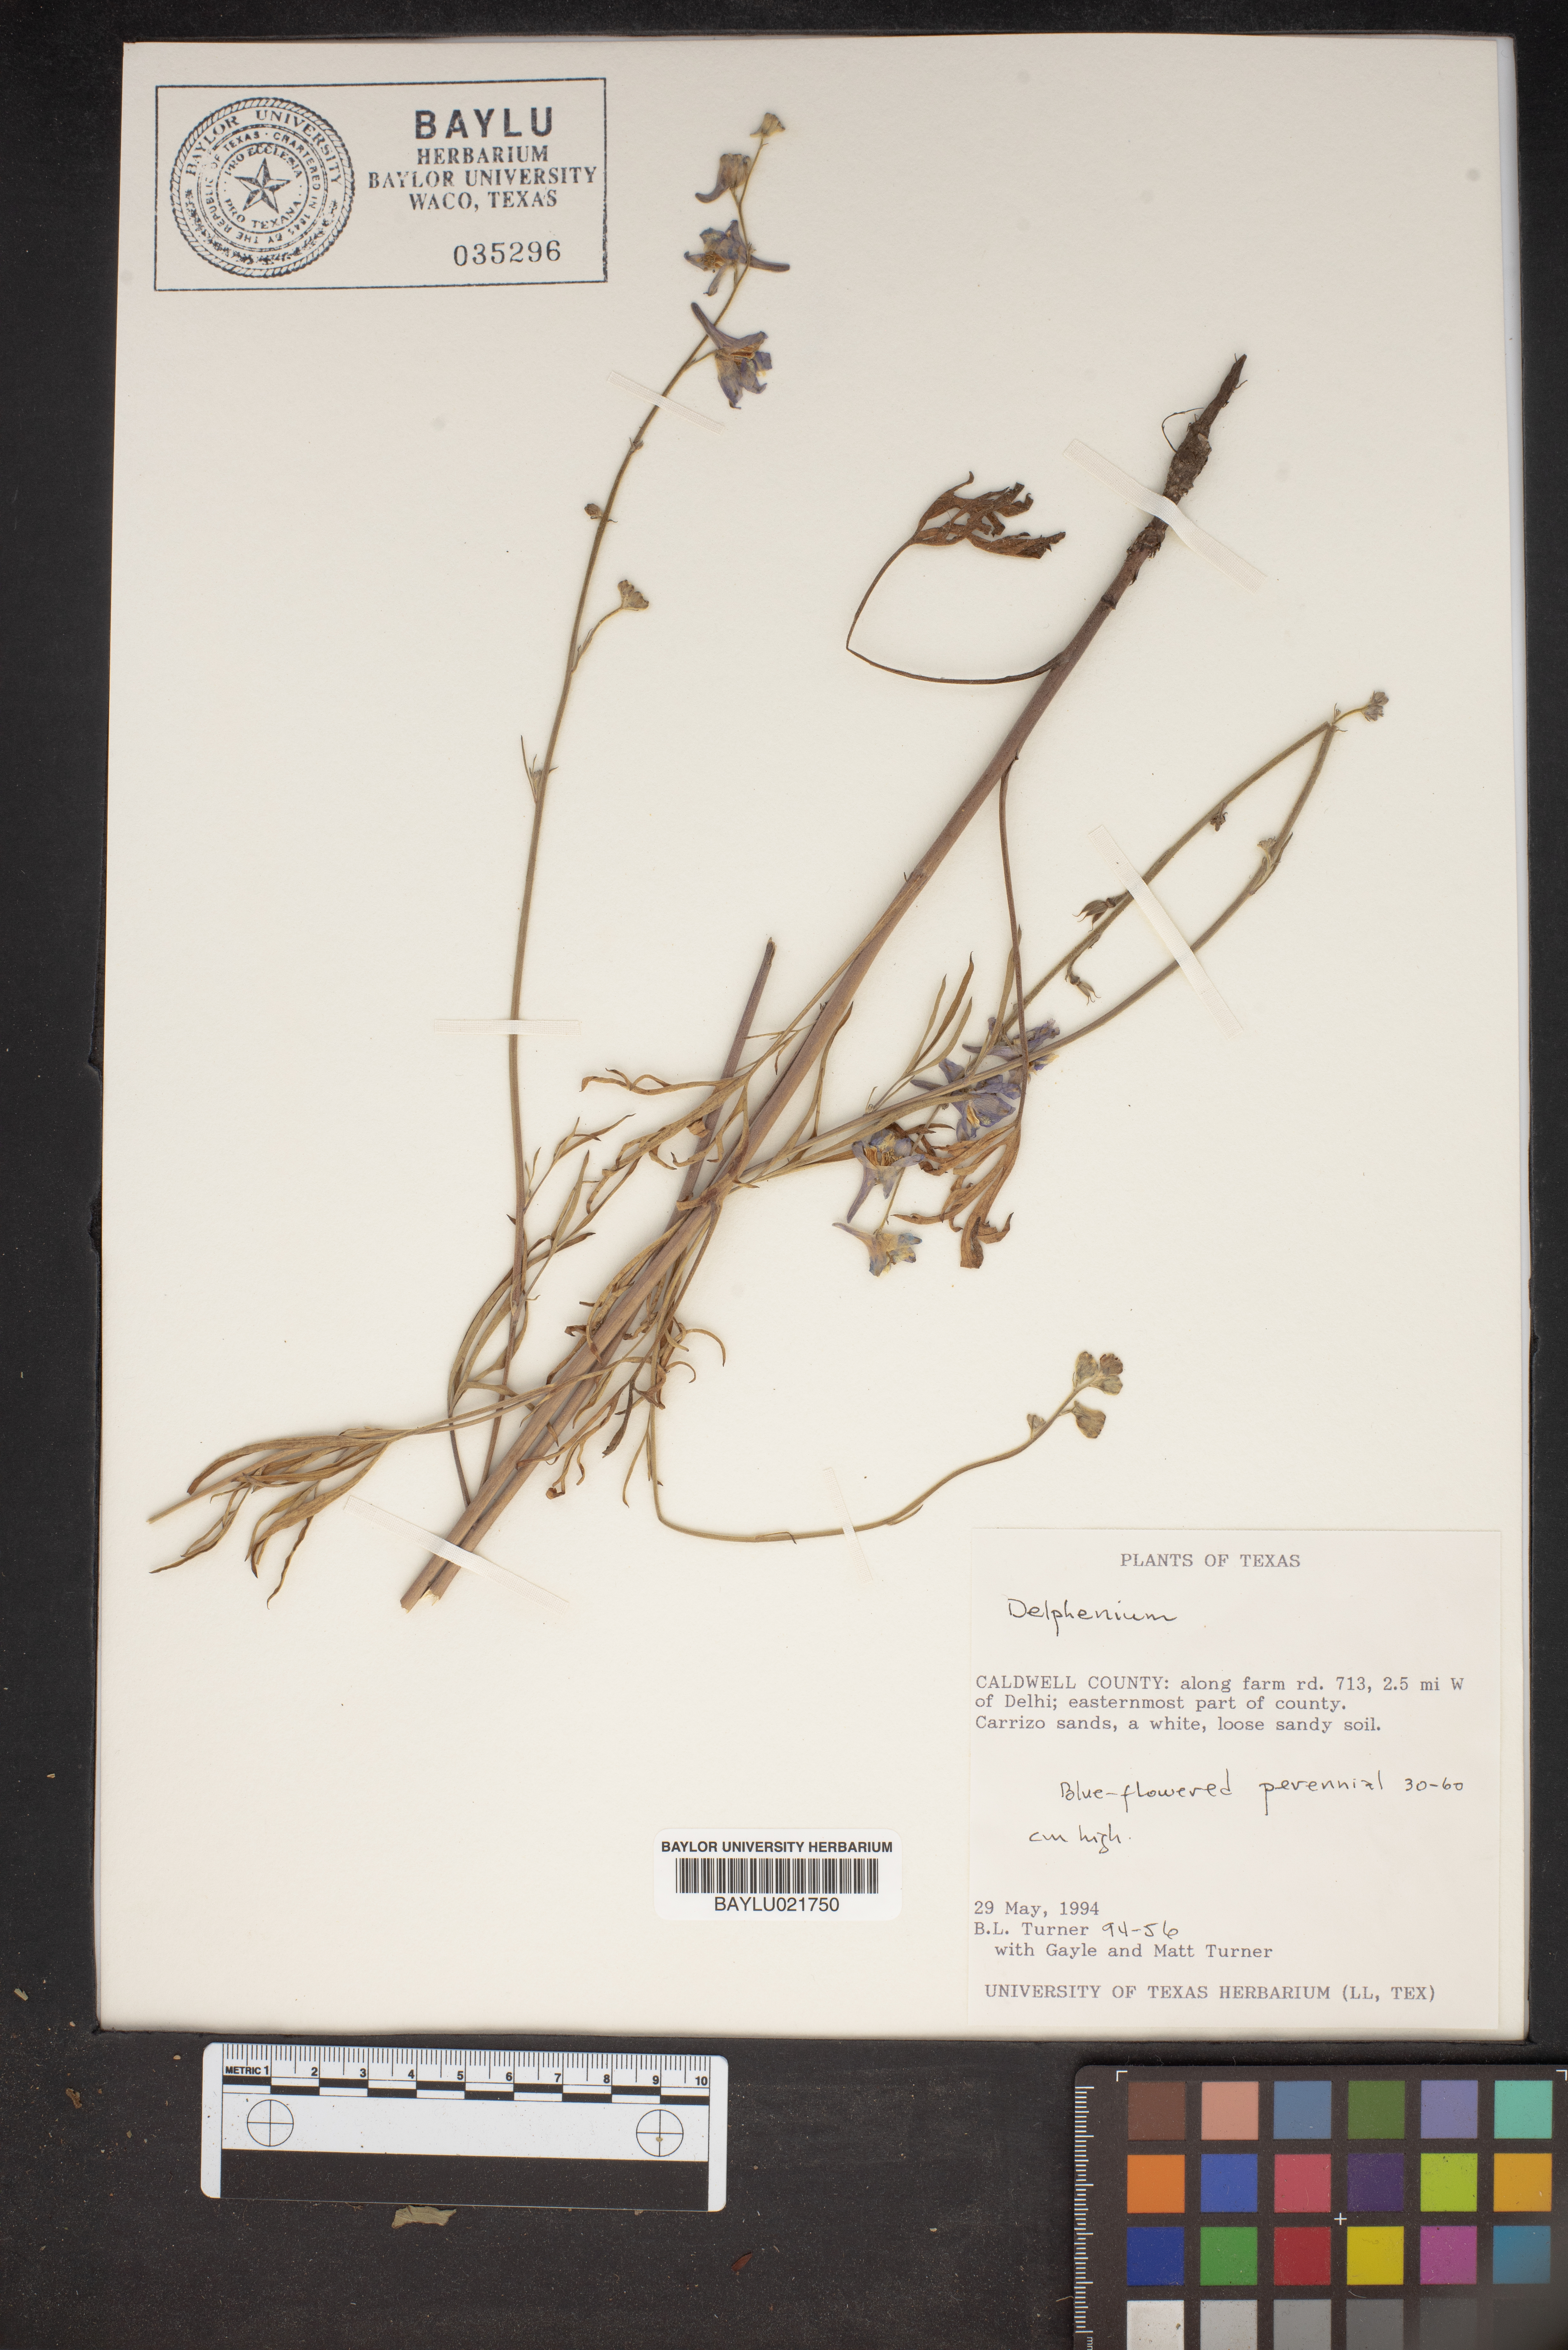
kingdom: Plantae
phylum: Tracheophyta
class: Magnoliopsida
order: Ranunculales
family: Ranunculaceae
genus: Delphinium
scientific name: Delphinium
